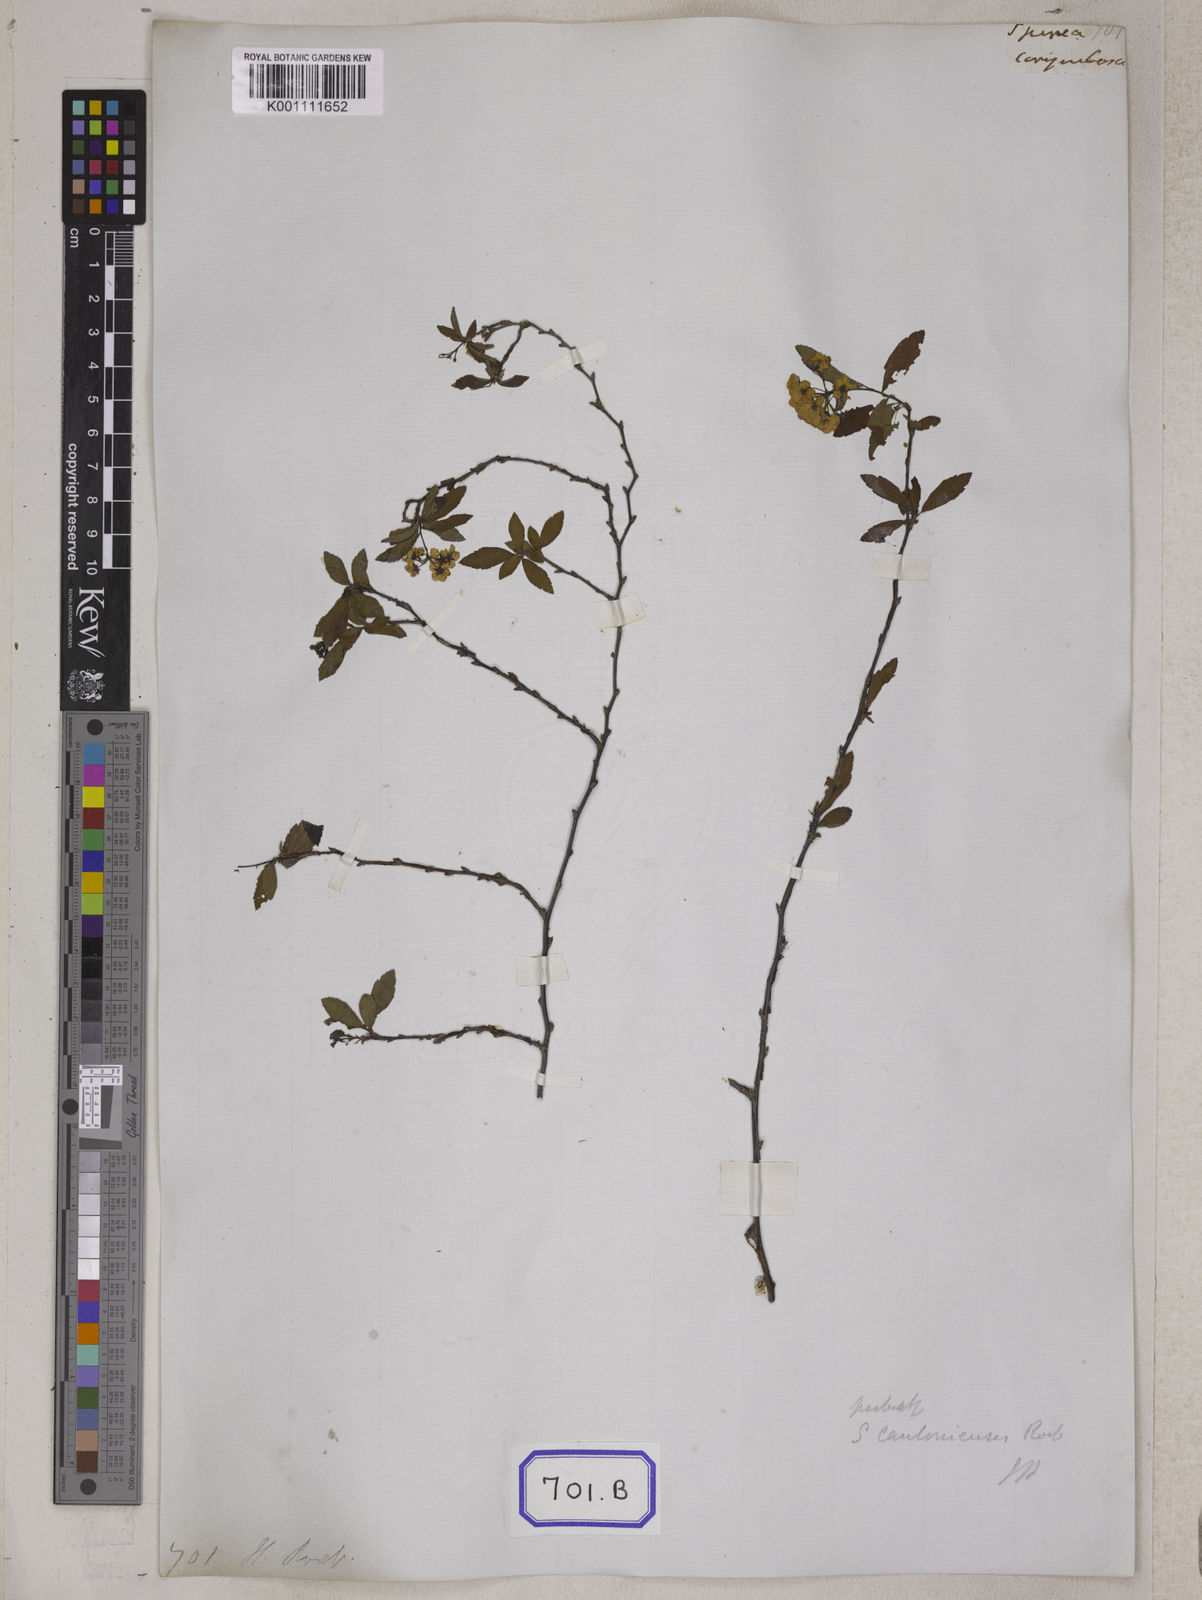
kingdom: Plantae
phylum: Tracheophyta
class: Magnoliopsida
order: Rosales
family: Rosaceae
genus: Spiraea
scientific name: Spiraea chamaedryfolia
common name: Elm-leaved spiraea
